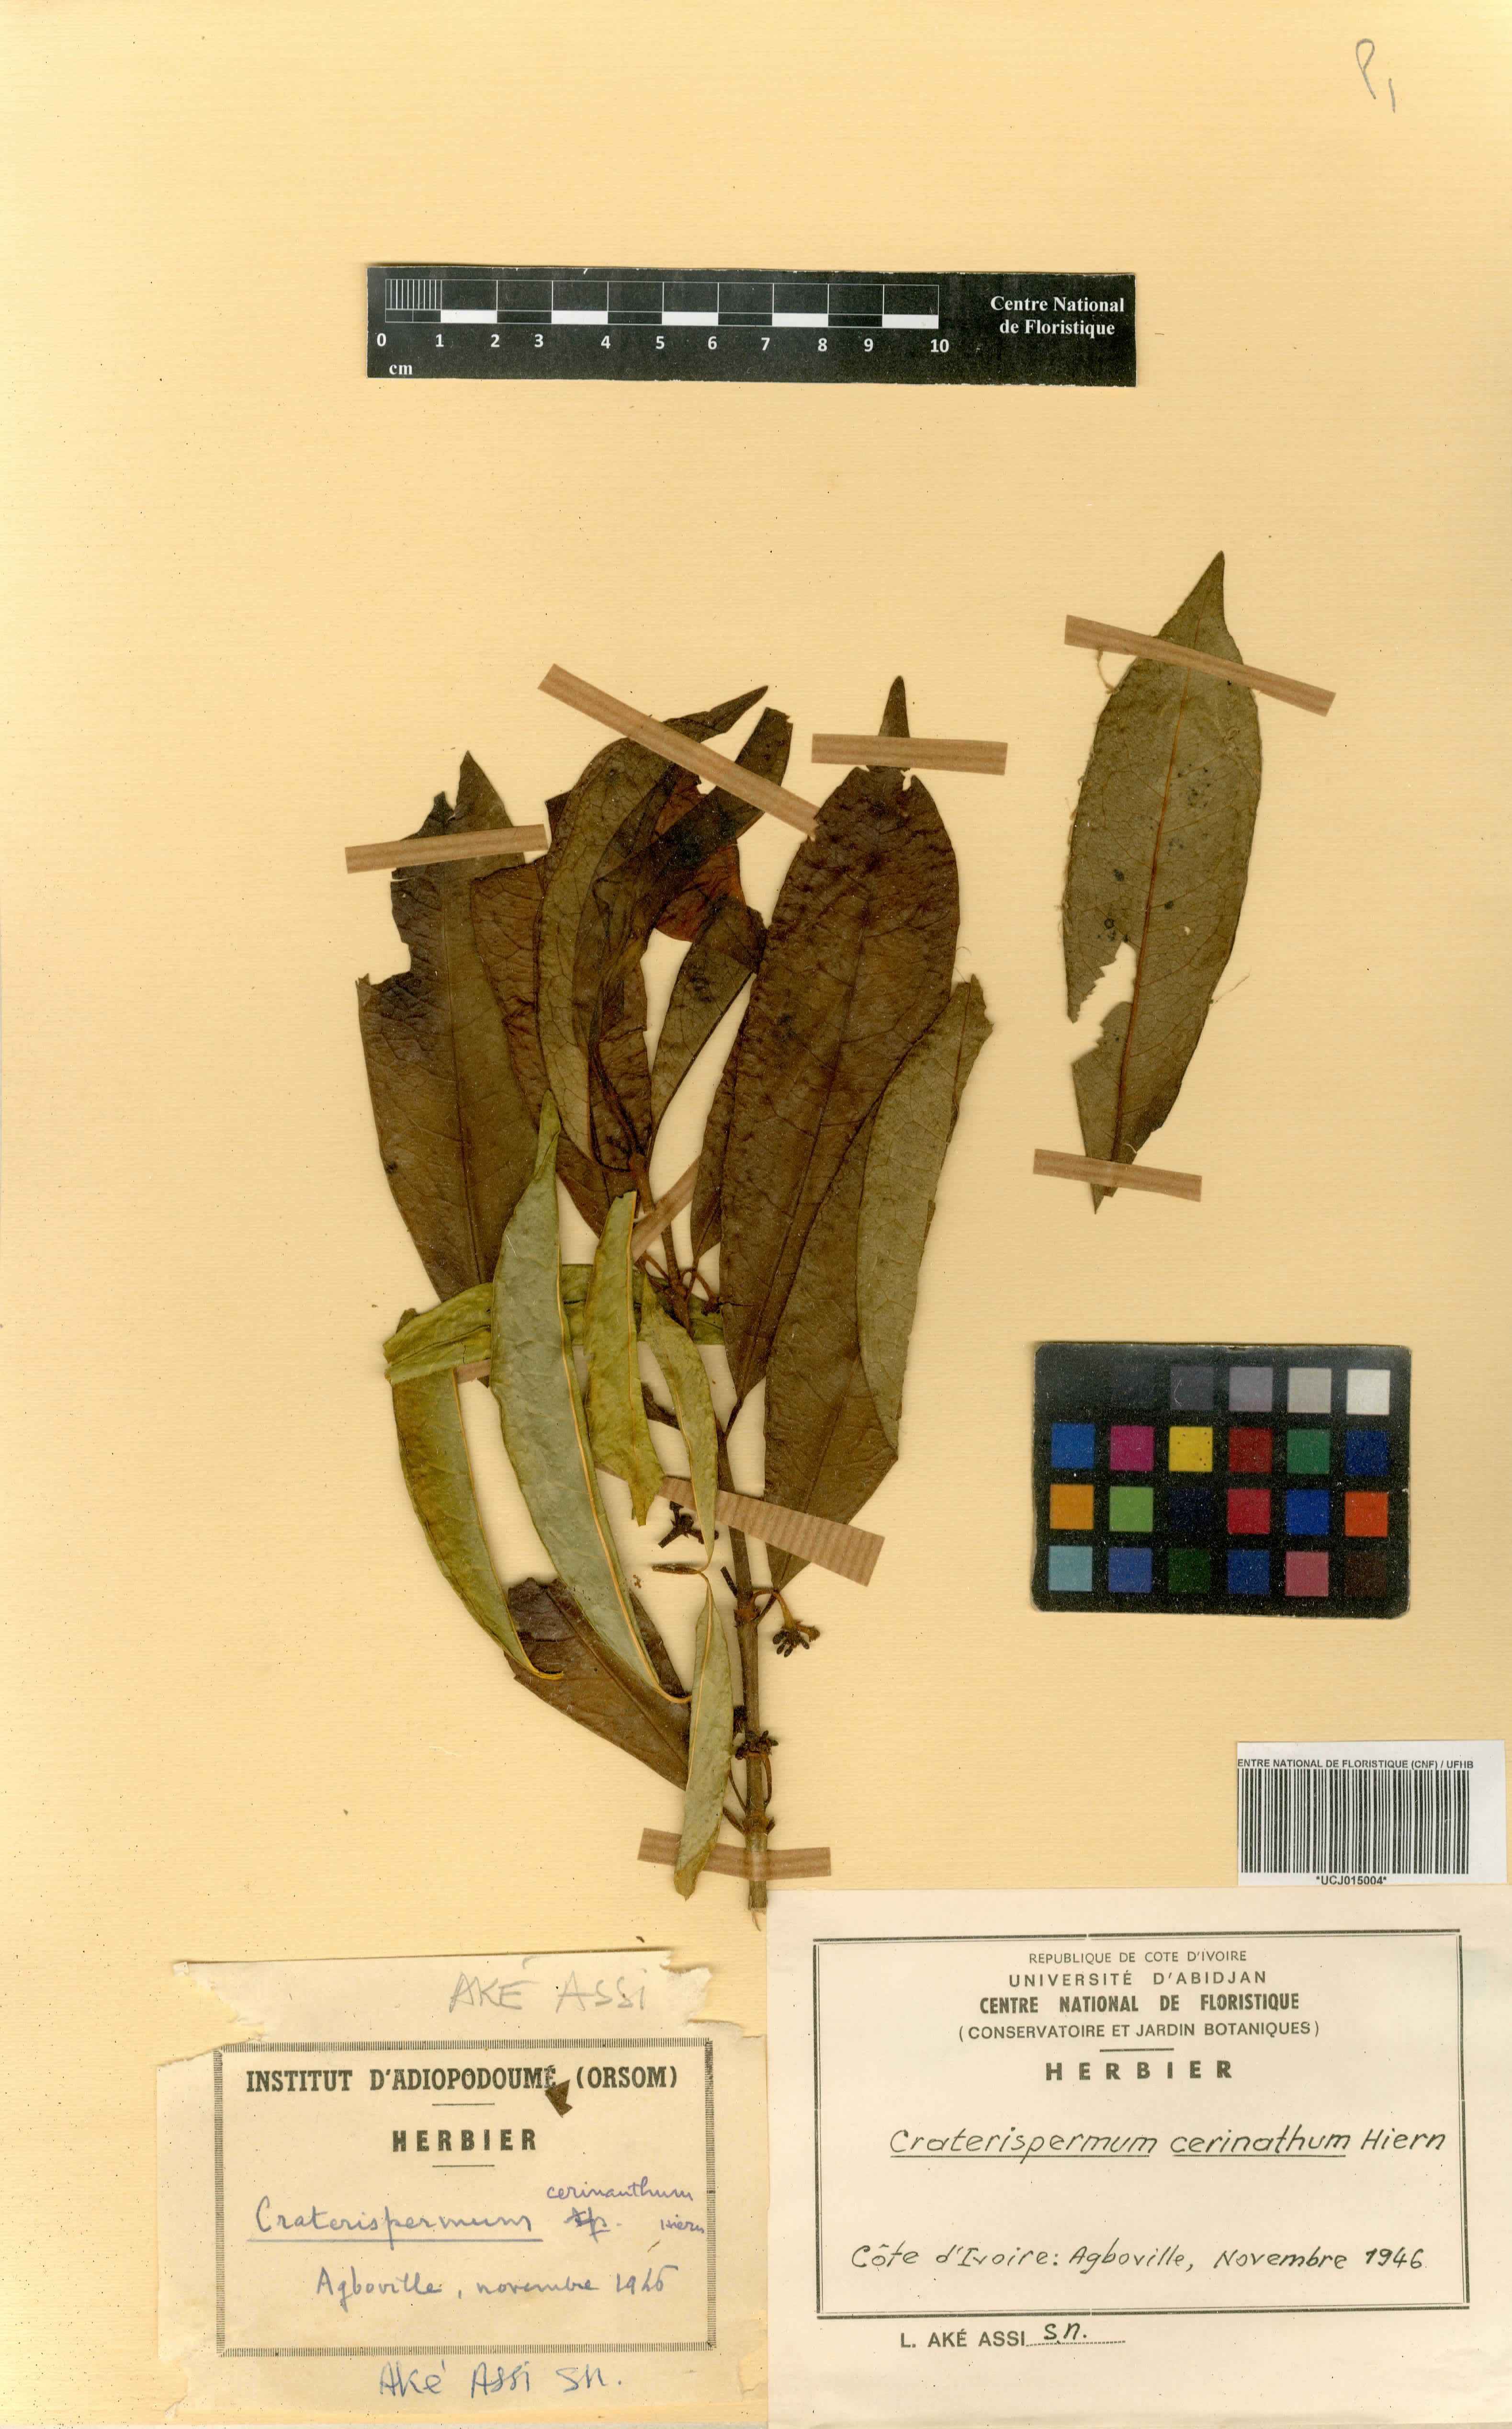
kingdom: Plantae
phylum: Tracheophyta
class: Magnoliopsida
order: Gentianales
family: Rubiaceae
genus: Craterispermum
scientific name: Craterispermum cerinanthum
